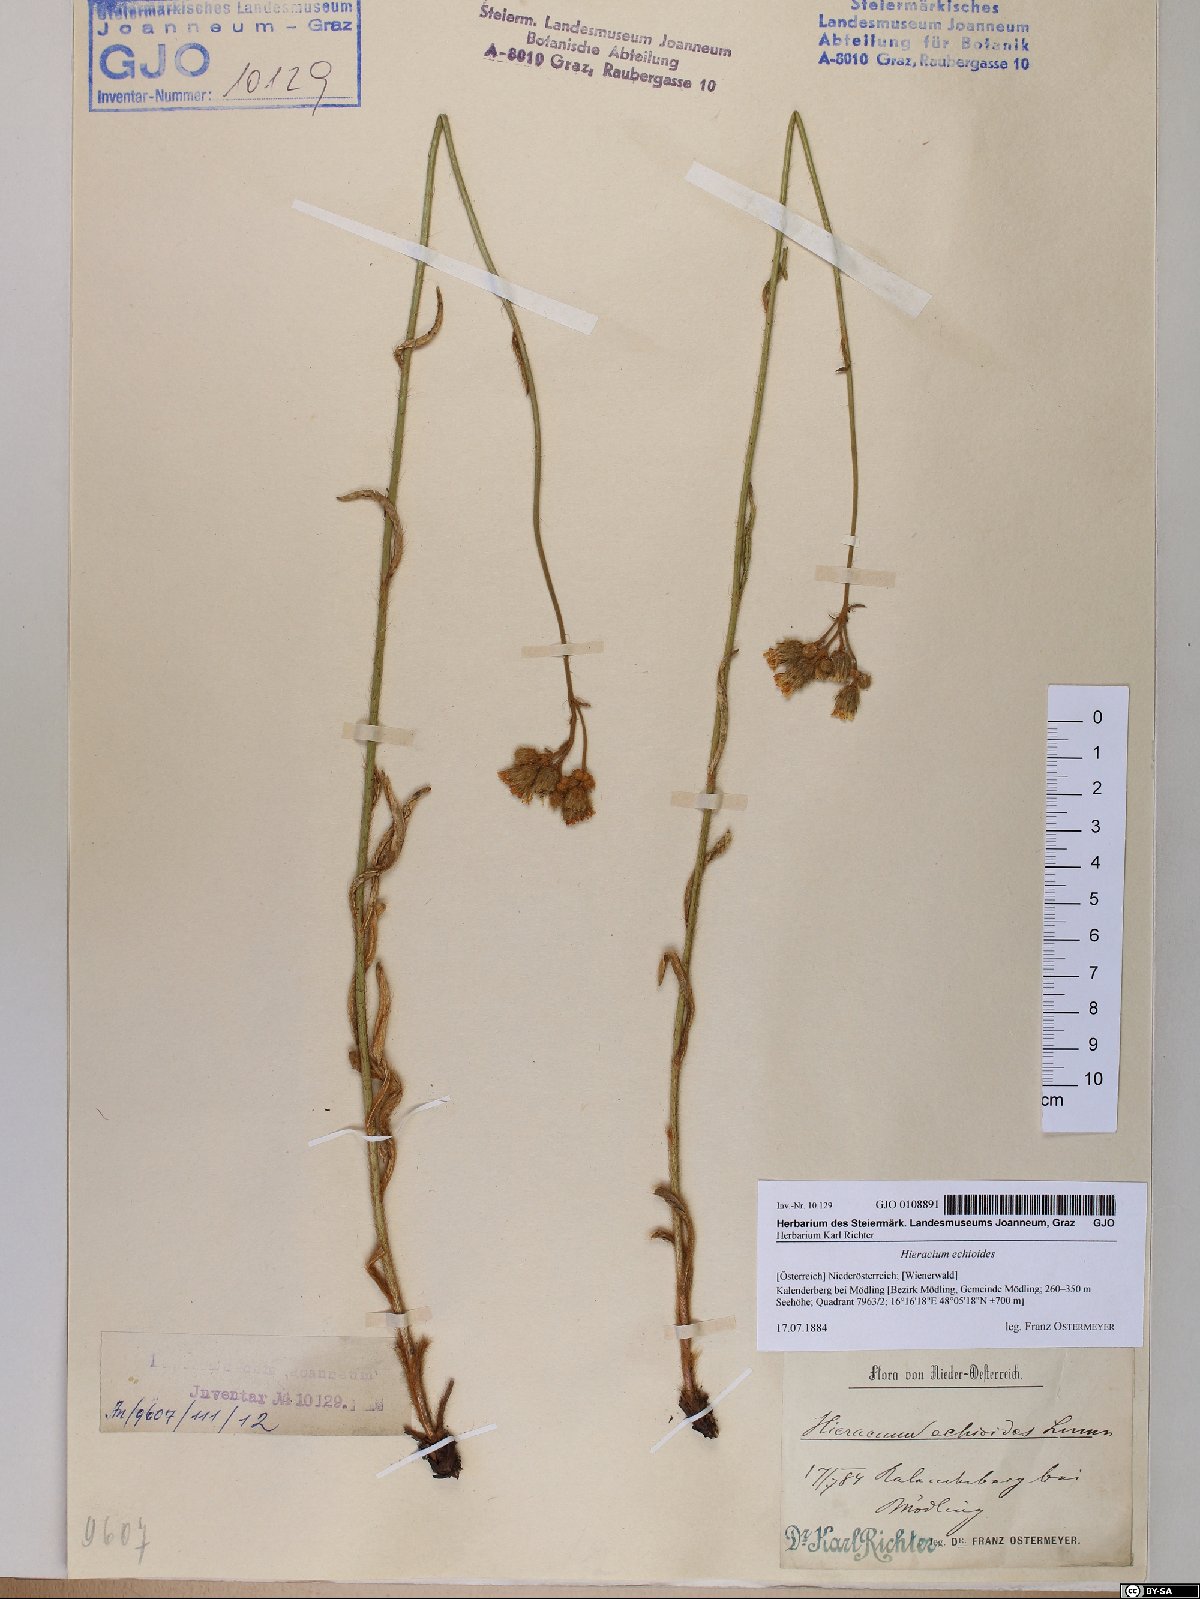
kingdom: Plantae
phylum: Tracheophyta
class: Magnoliopsida
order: Asterales
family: Asteraceae
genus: Pilosella
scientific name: Pilosella echioides
